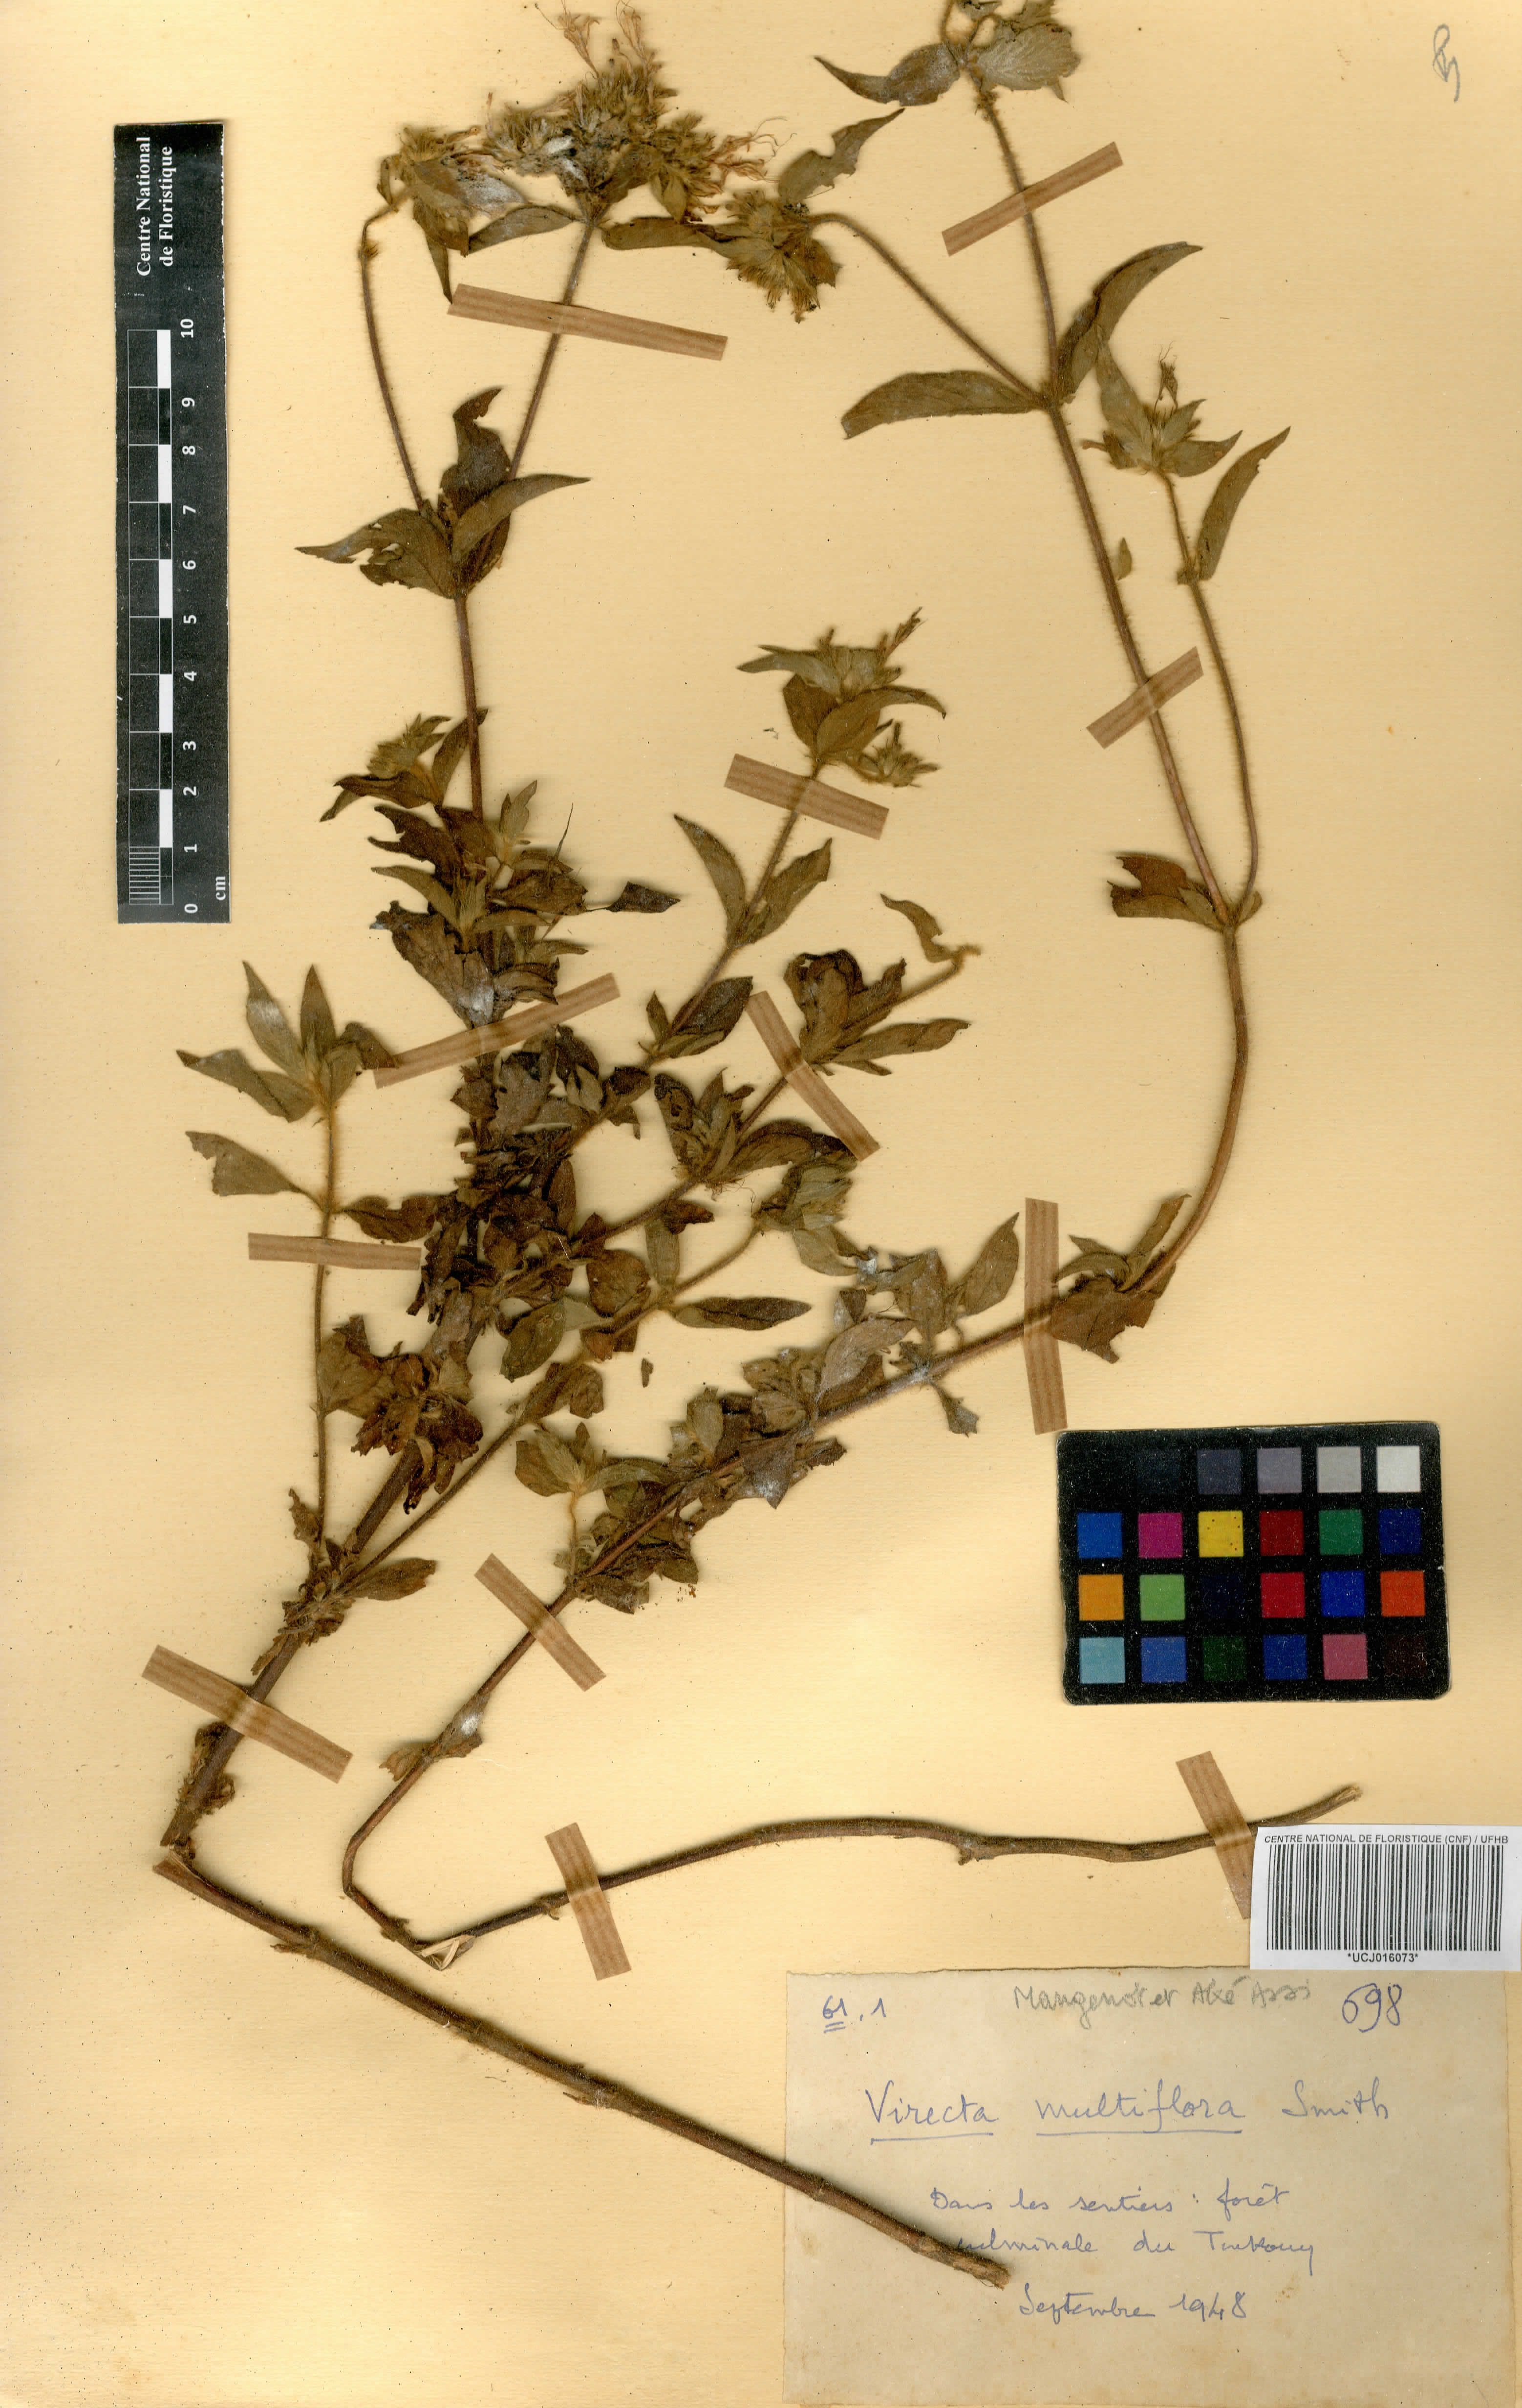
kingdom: Plantae
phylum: Tracheophyta
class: Magnoliopsida
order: Gentianales
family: Rubiaceae
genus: Virectaria
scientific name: Virectaria multiflora
